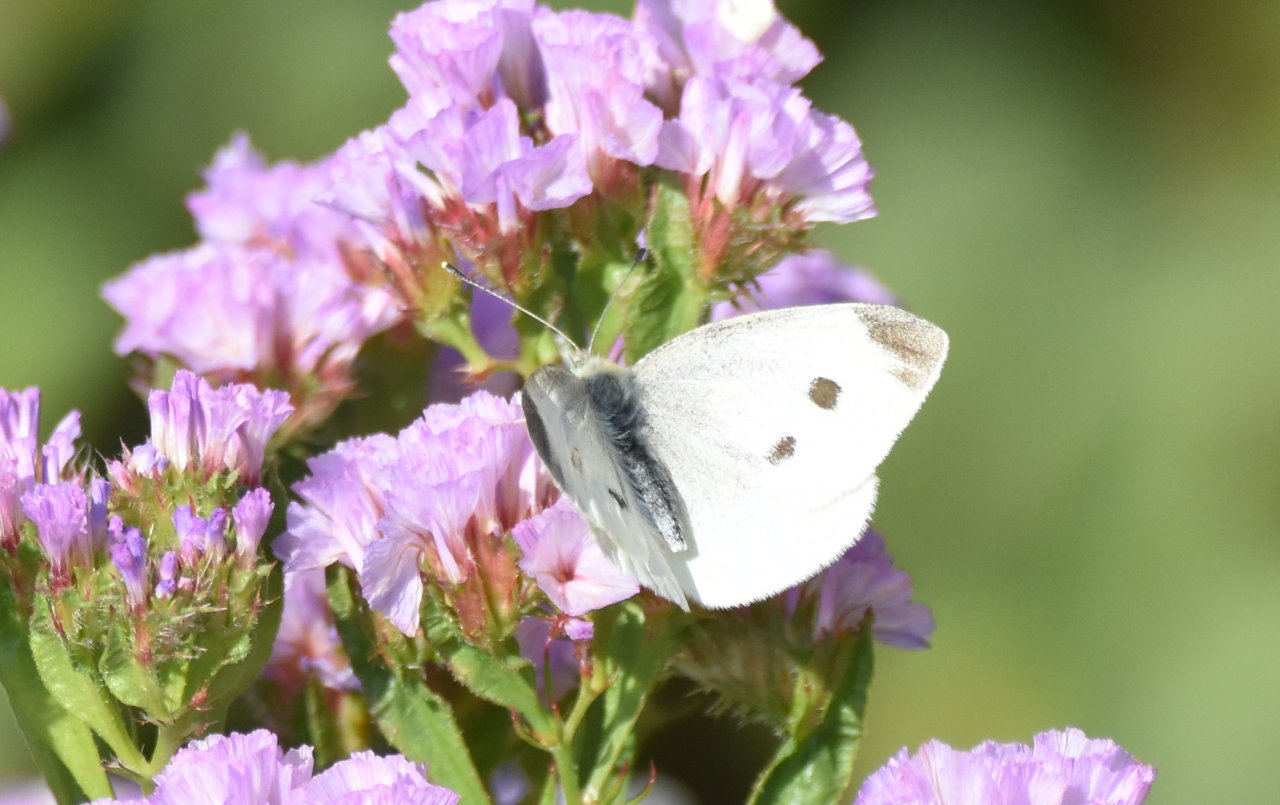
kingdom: Animalia
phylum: Arthropoda
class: Insecta
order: Lepidoptera
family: Pieridae
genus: Pieris
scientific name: Pieris rapae
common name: Cabbage White
